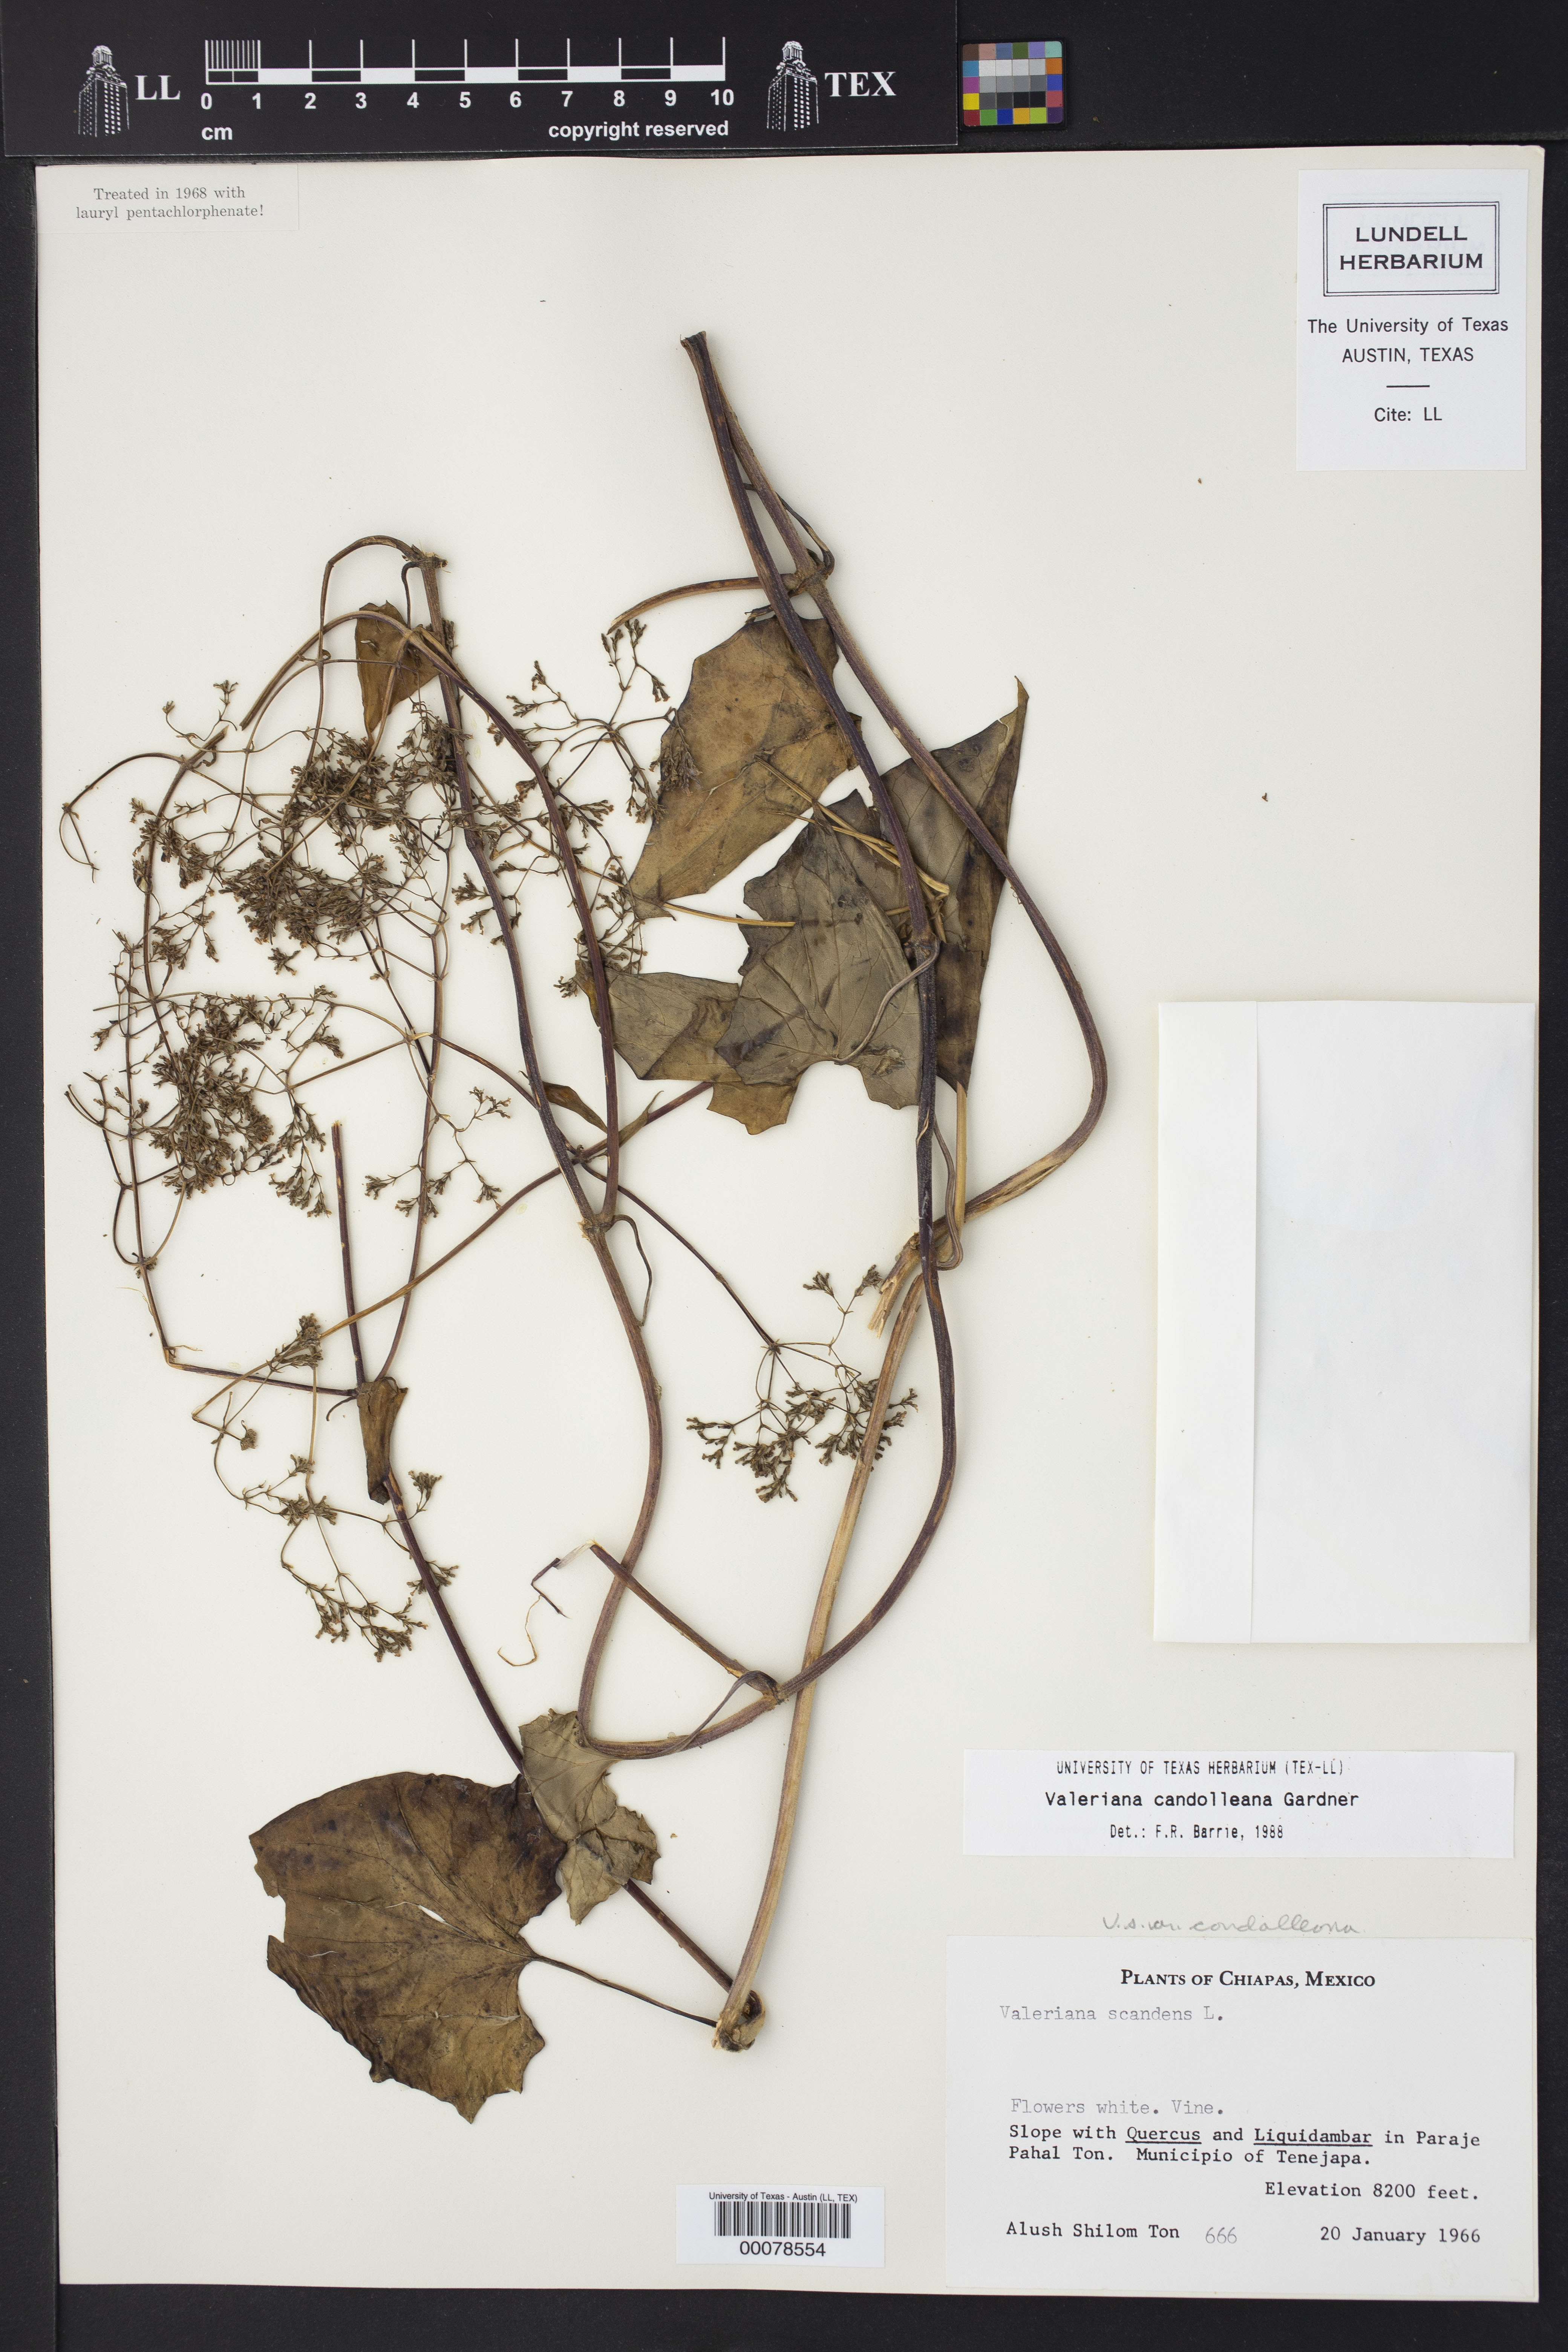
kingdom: Plantae
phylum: Tracheophyta
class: Magnoliopsida
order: Dipsacales
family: Caprifoliaceae
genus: Valeriana
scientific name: Valeriana candolleana
